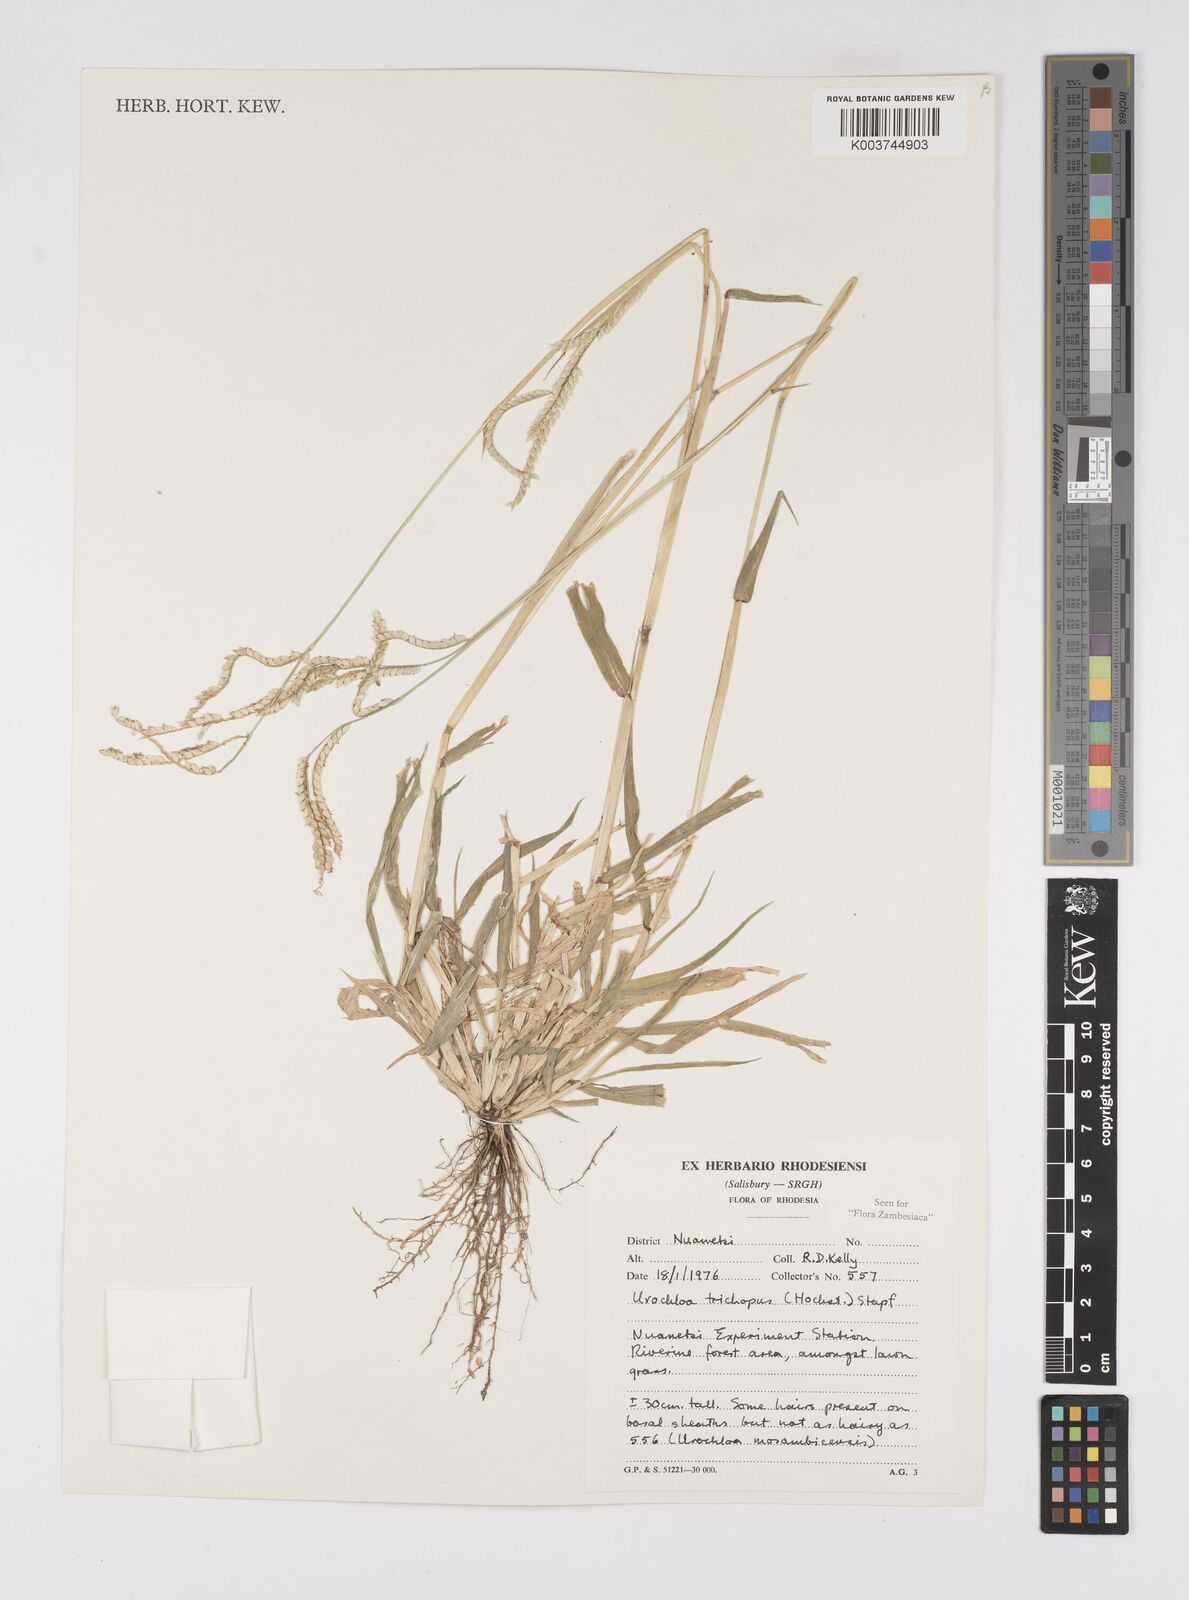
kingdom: Plantae
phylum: Tracheophyta
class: Liliopsida
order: Poales
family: Poaceae
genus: Urochloa
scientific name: Urochloa trichopus
